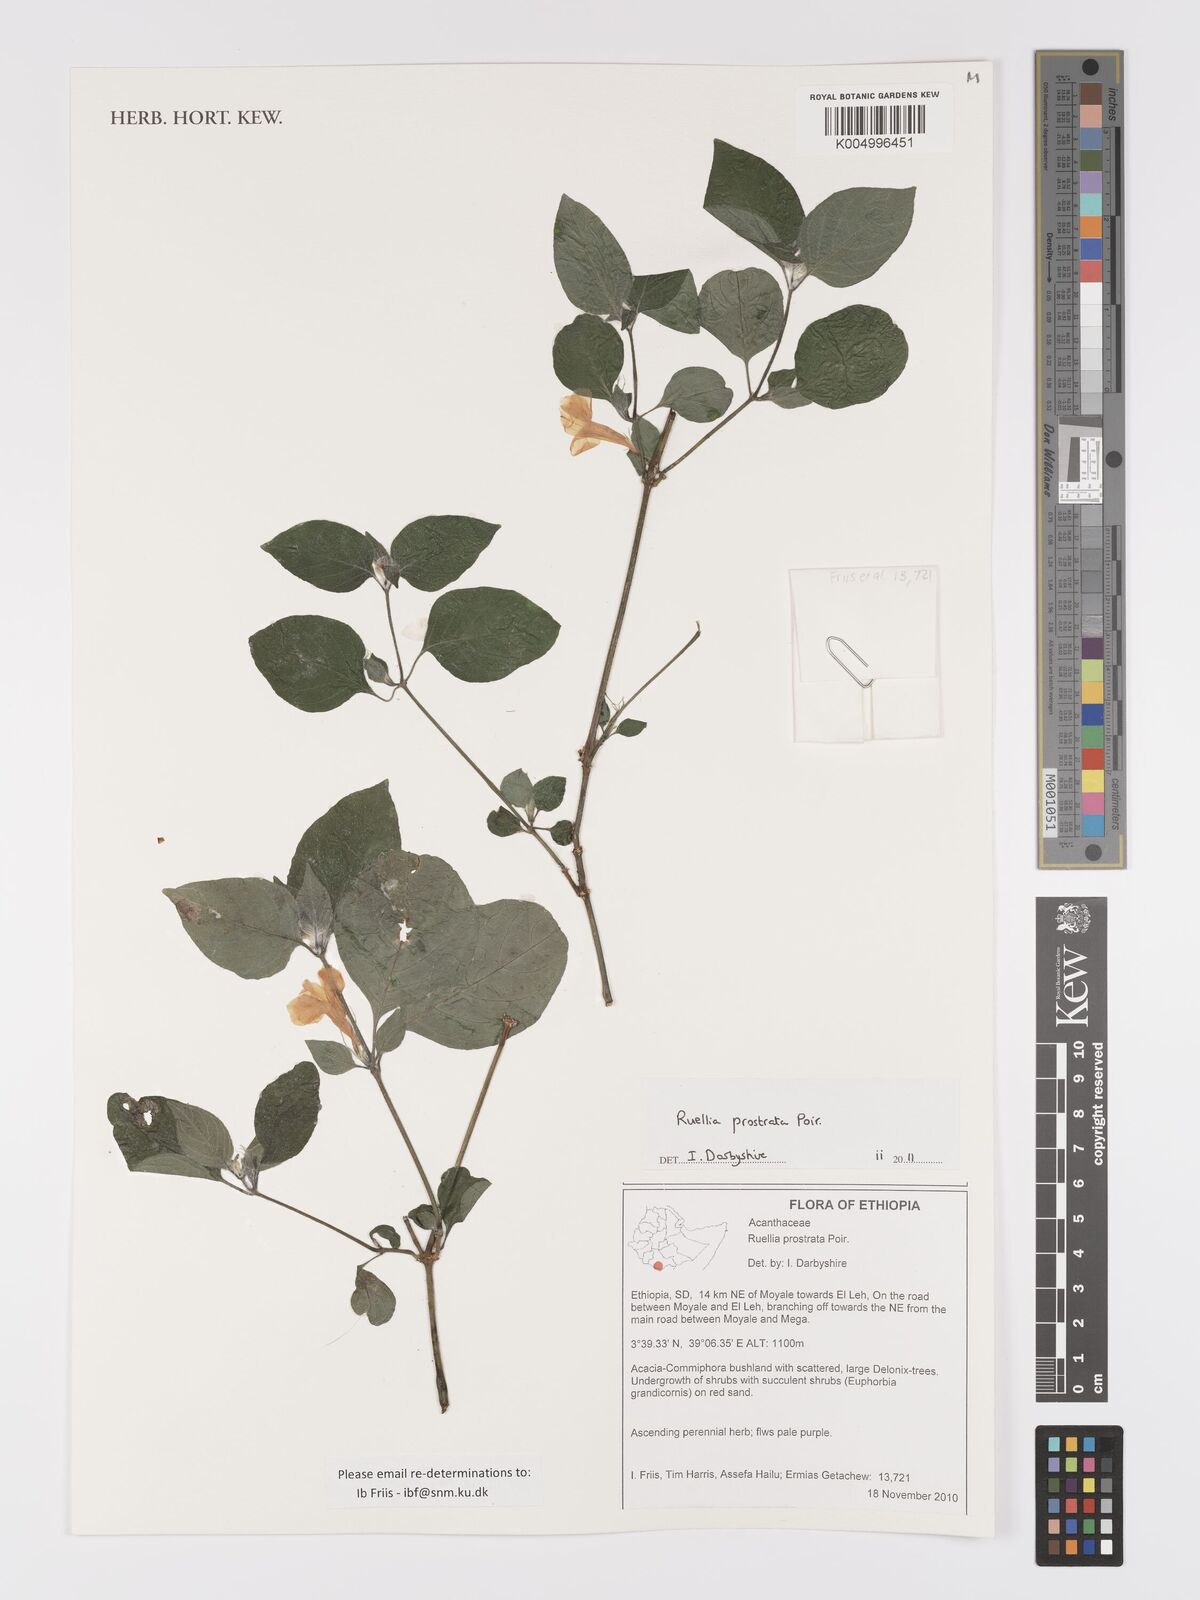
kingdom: Plantae
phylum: Tracheophyta
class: Magnoliopsida
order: Lamiales
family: Acanthaceae
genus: Ruellia
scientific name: Ruellia
